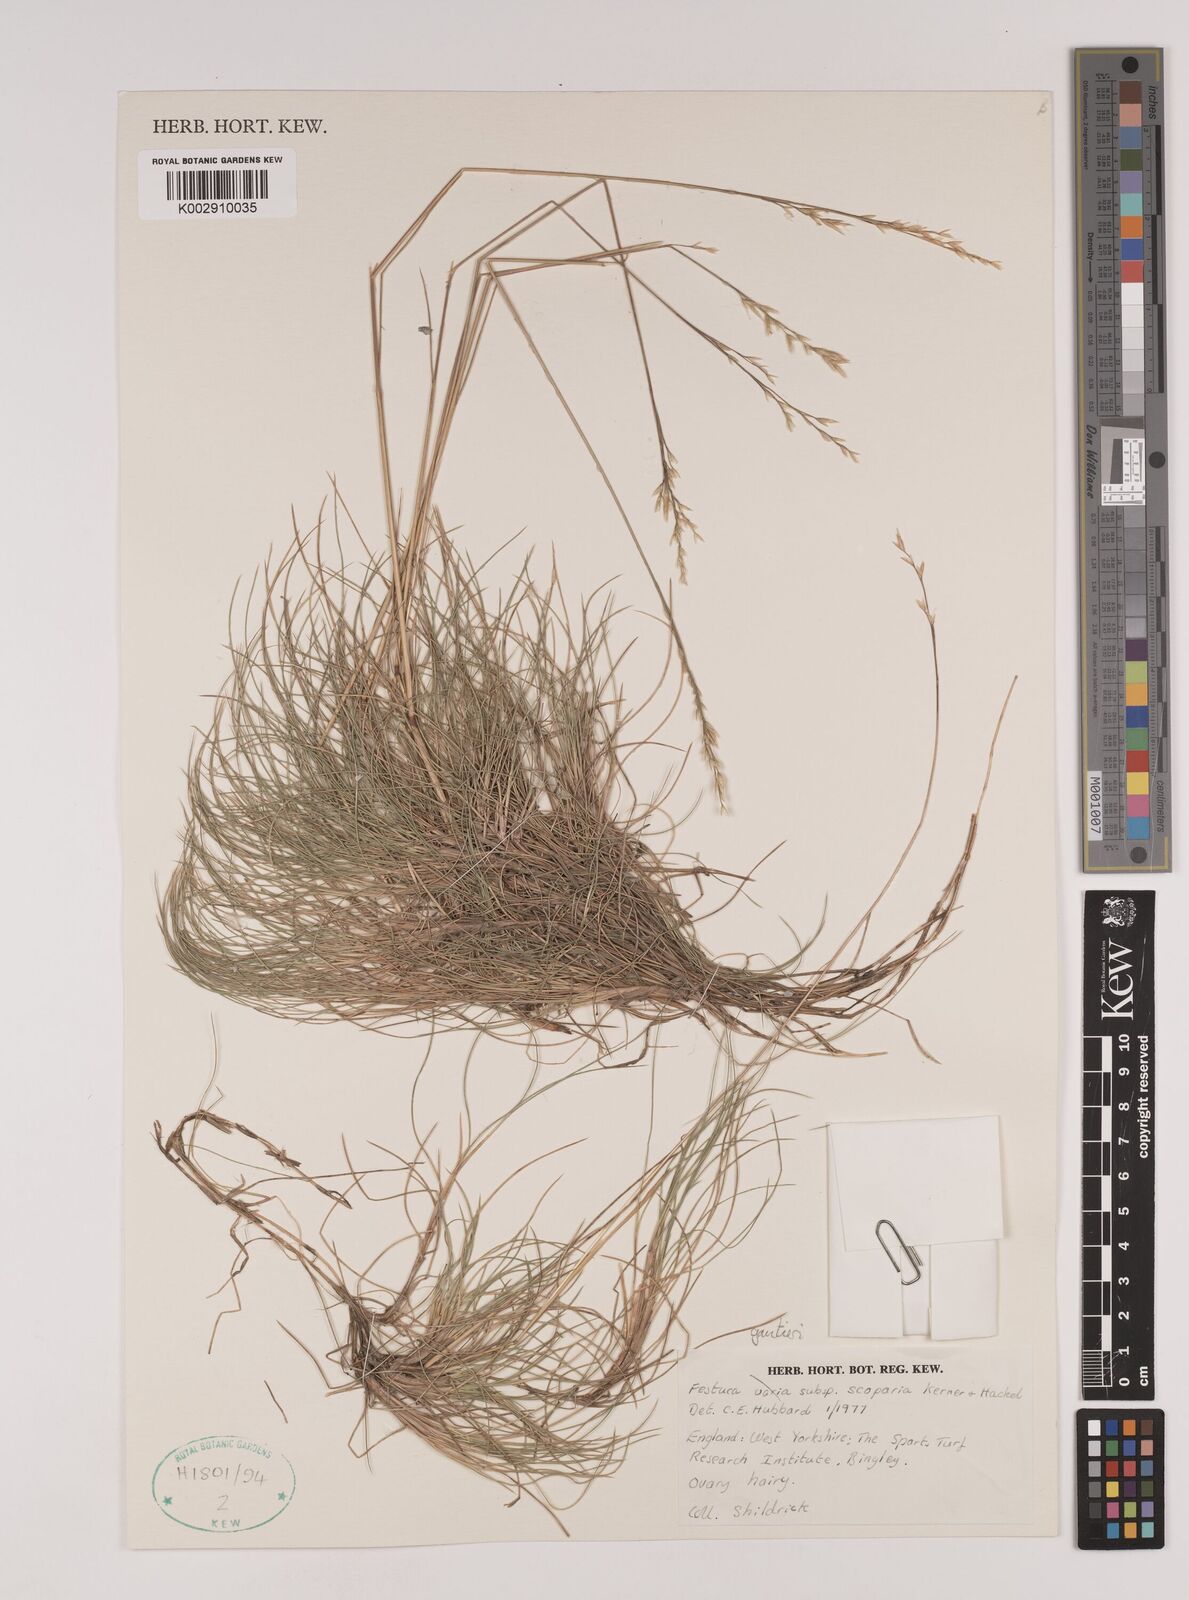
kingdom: Plantae
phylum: Tracheophyta
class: Liliopsida
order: Poales
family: Poaceae
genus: Festuca
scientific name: Festuca gautieri
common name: Spiky fescue
